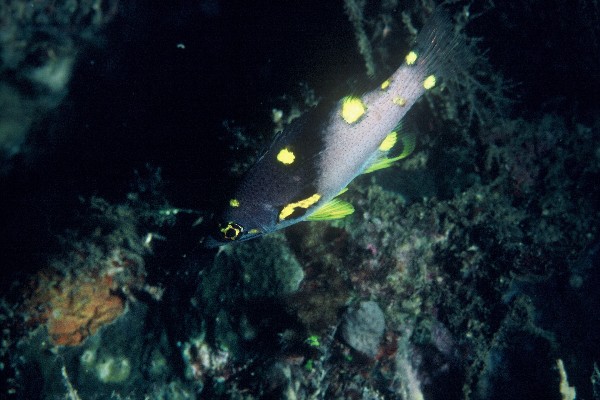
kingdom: Animalia
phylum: Chordata
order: Perciformes
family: Labridae
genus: Bodianus
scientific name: Bodianus mesothorax
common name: Coral hogfish
